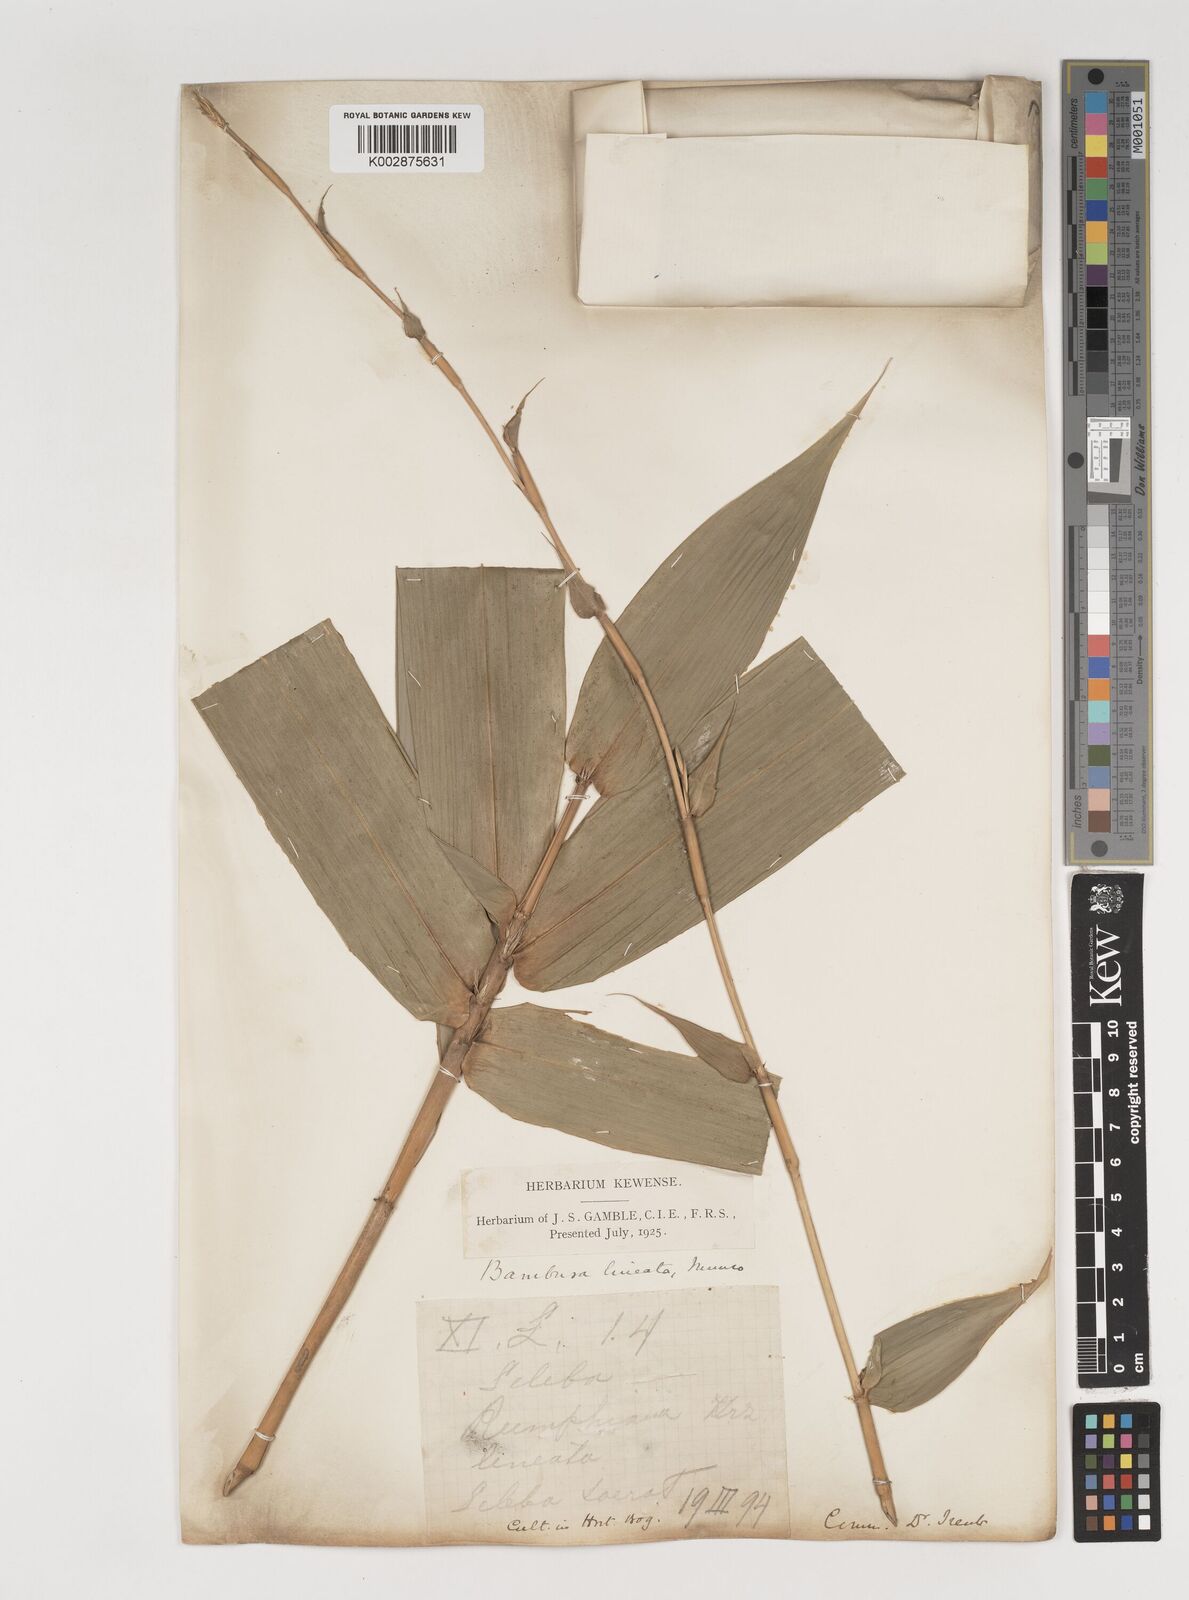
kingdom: Plantae
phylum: Tracheophyta
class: Liliopsida
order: Poales
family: Poaceae
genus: Neololeba
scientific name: Neololeba atra
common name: Cape bamboo
